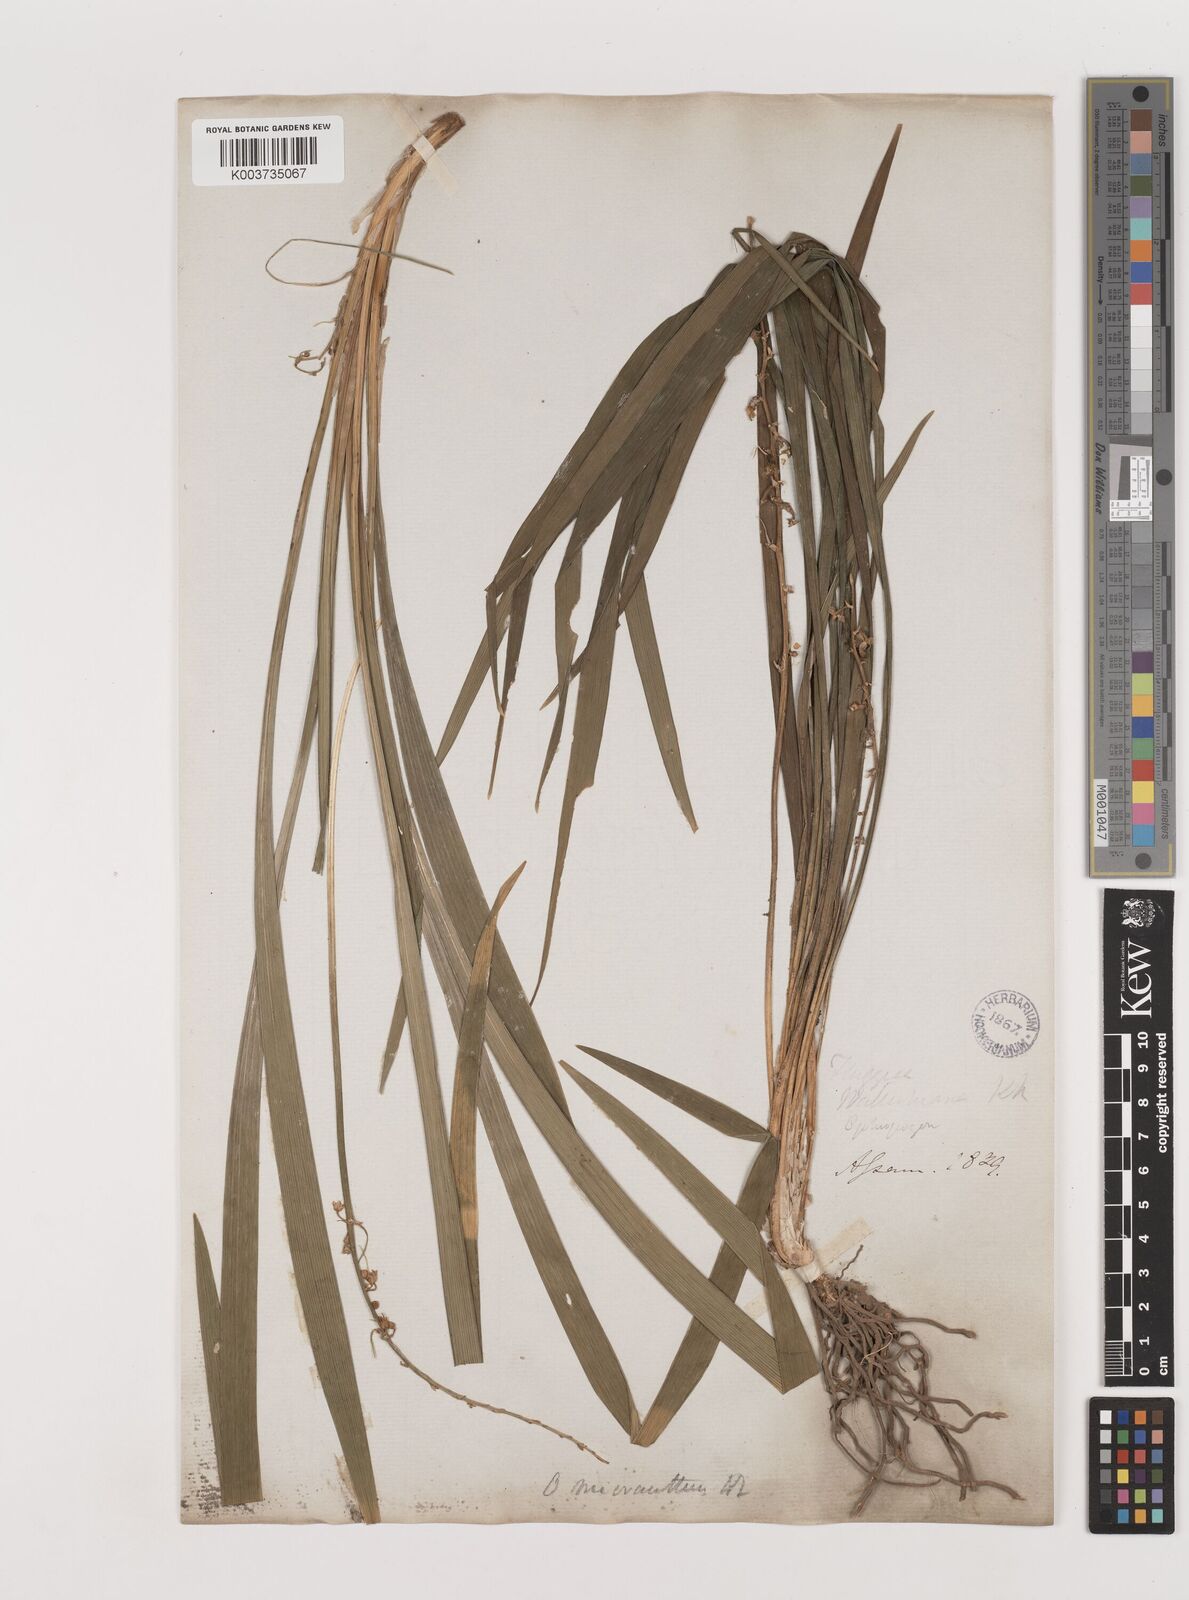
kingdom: Plantae
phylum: Tracheophyta
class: Liliopsida
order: Asparagales
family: Asparagaceae
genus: Ophiopogon
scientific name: Ophiopogon micranthus
